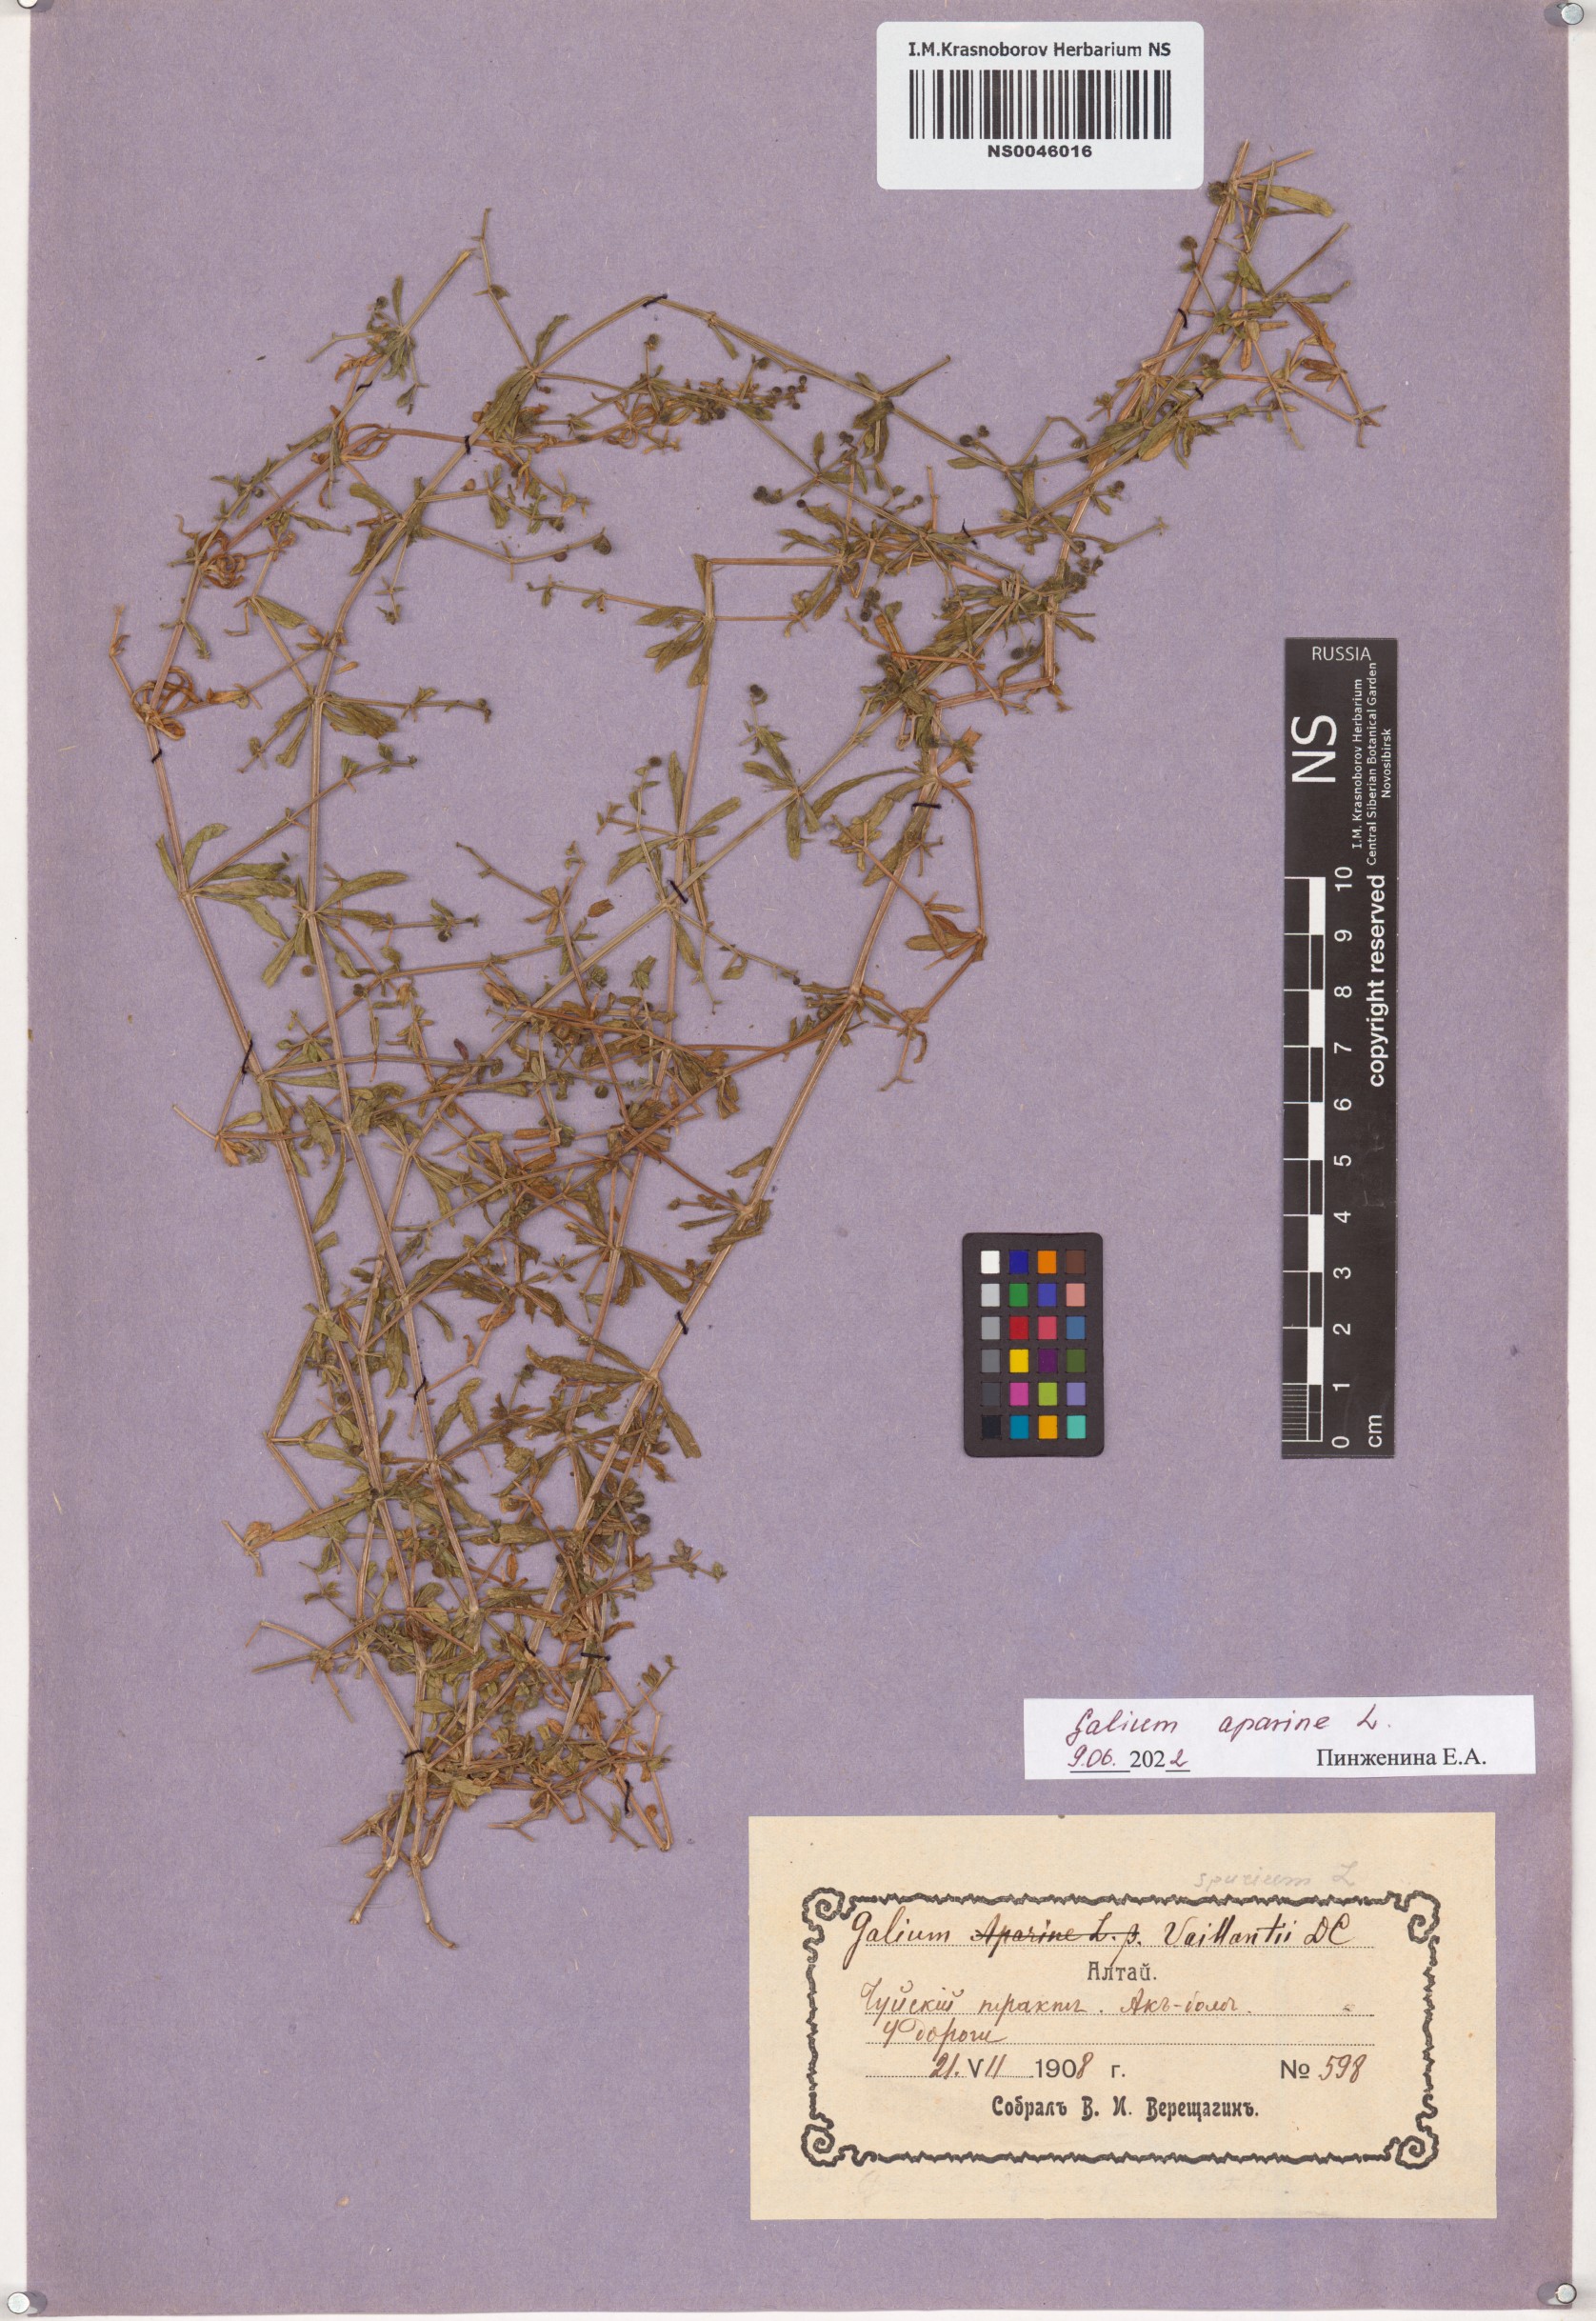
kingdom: Plantae
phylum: Tracheophyta
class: Magnoliopsida
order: Gentianales
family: Rubiaceae
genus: Galium
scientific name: Galium aparine
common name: Cleavers
